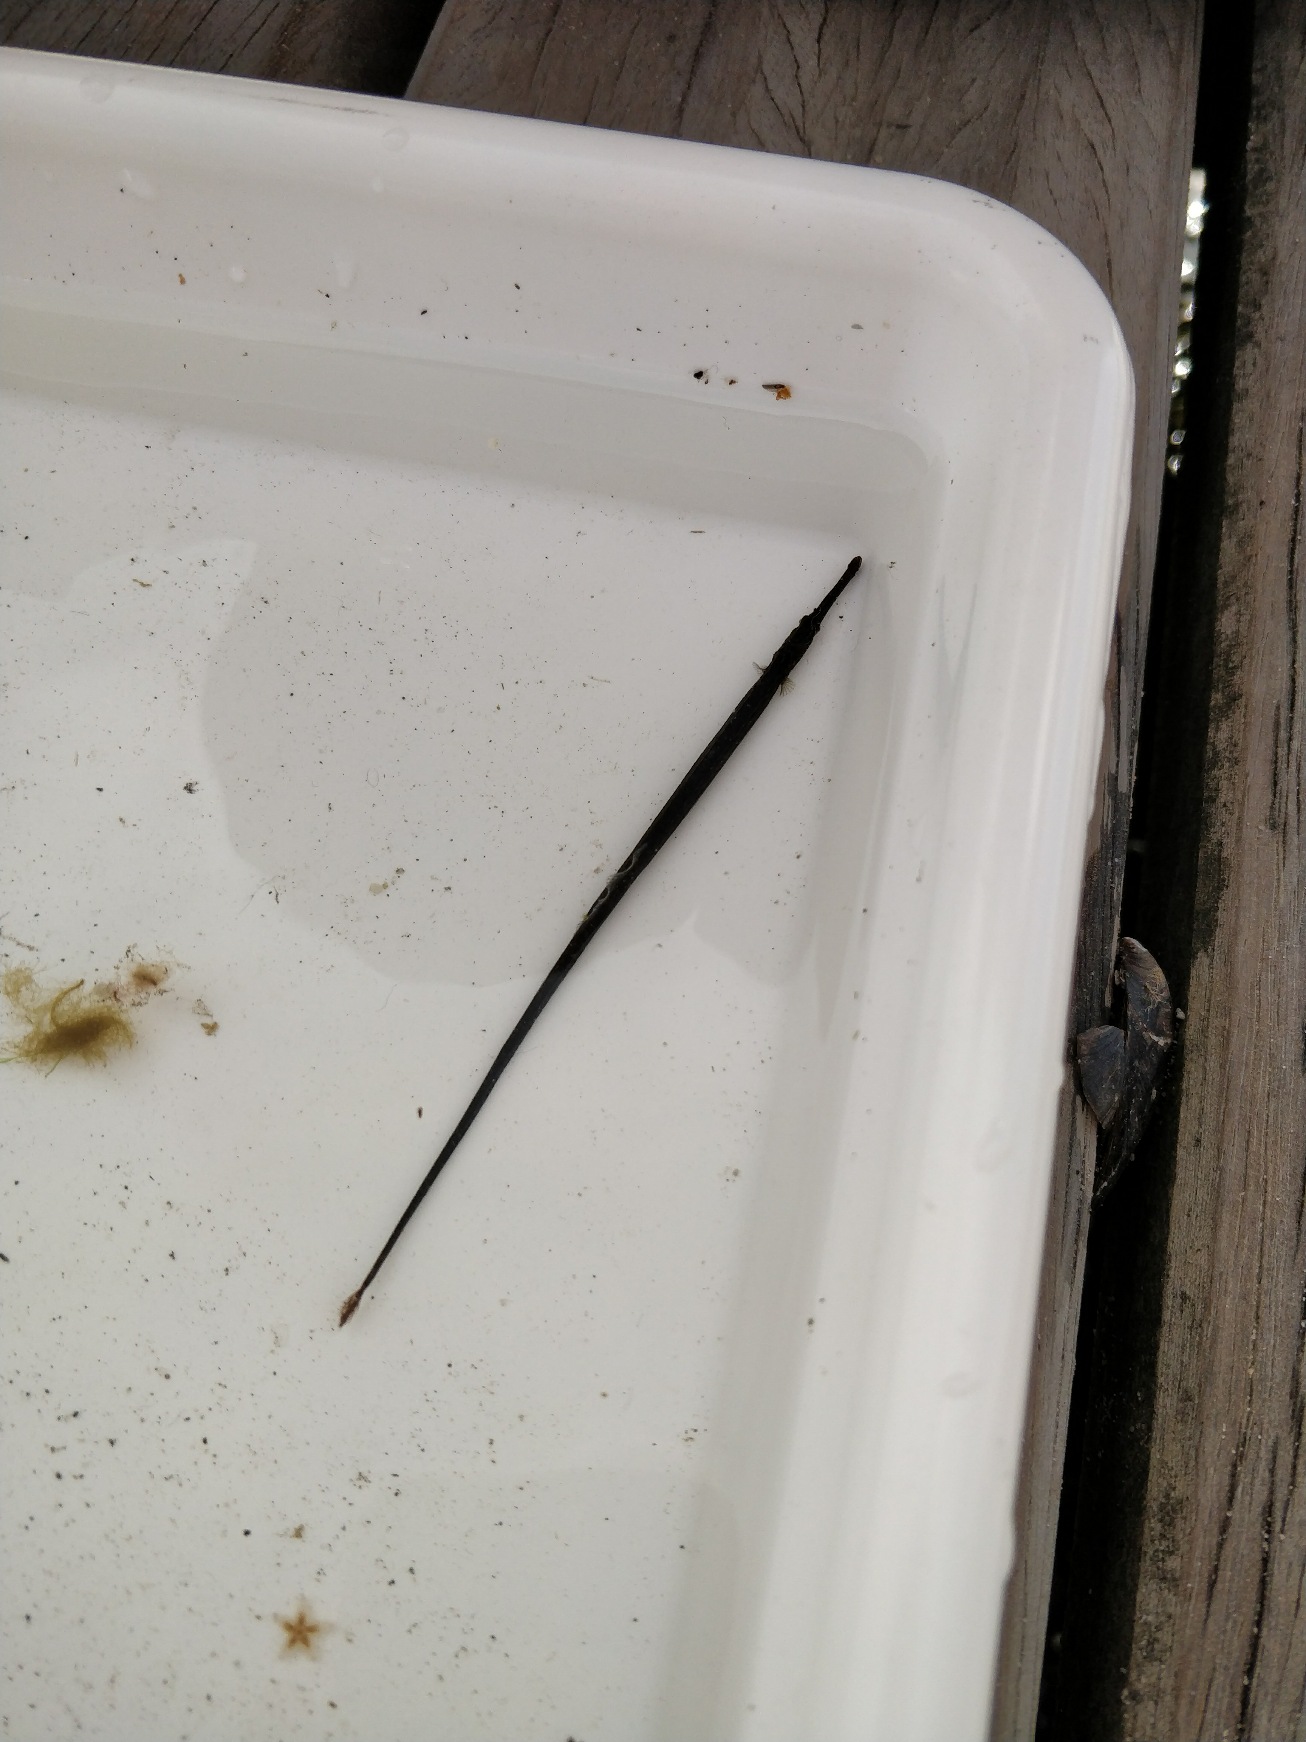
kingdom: Animalia
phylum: Chordata
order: Syngnathiformes
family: Syngnathidae
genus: Syngnathus
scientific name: Syngnathus typhle
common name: Almindelig tangnål
